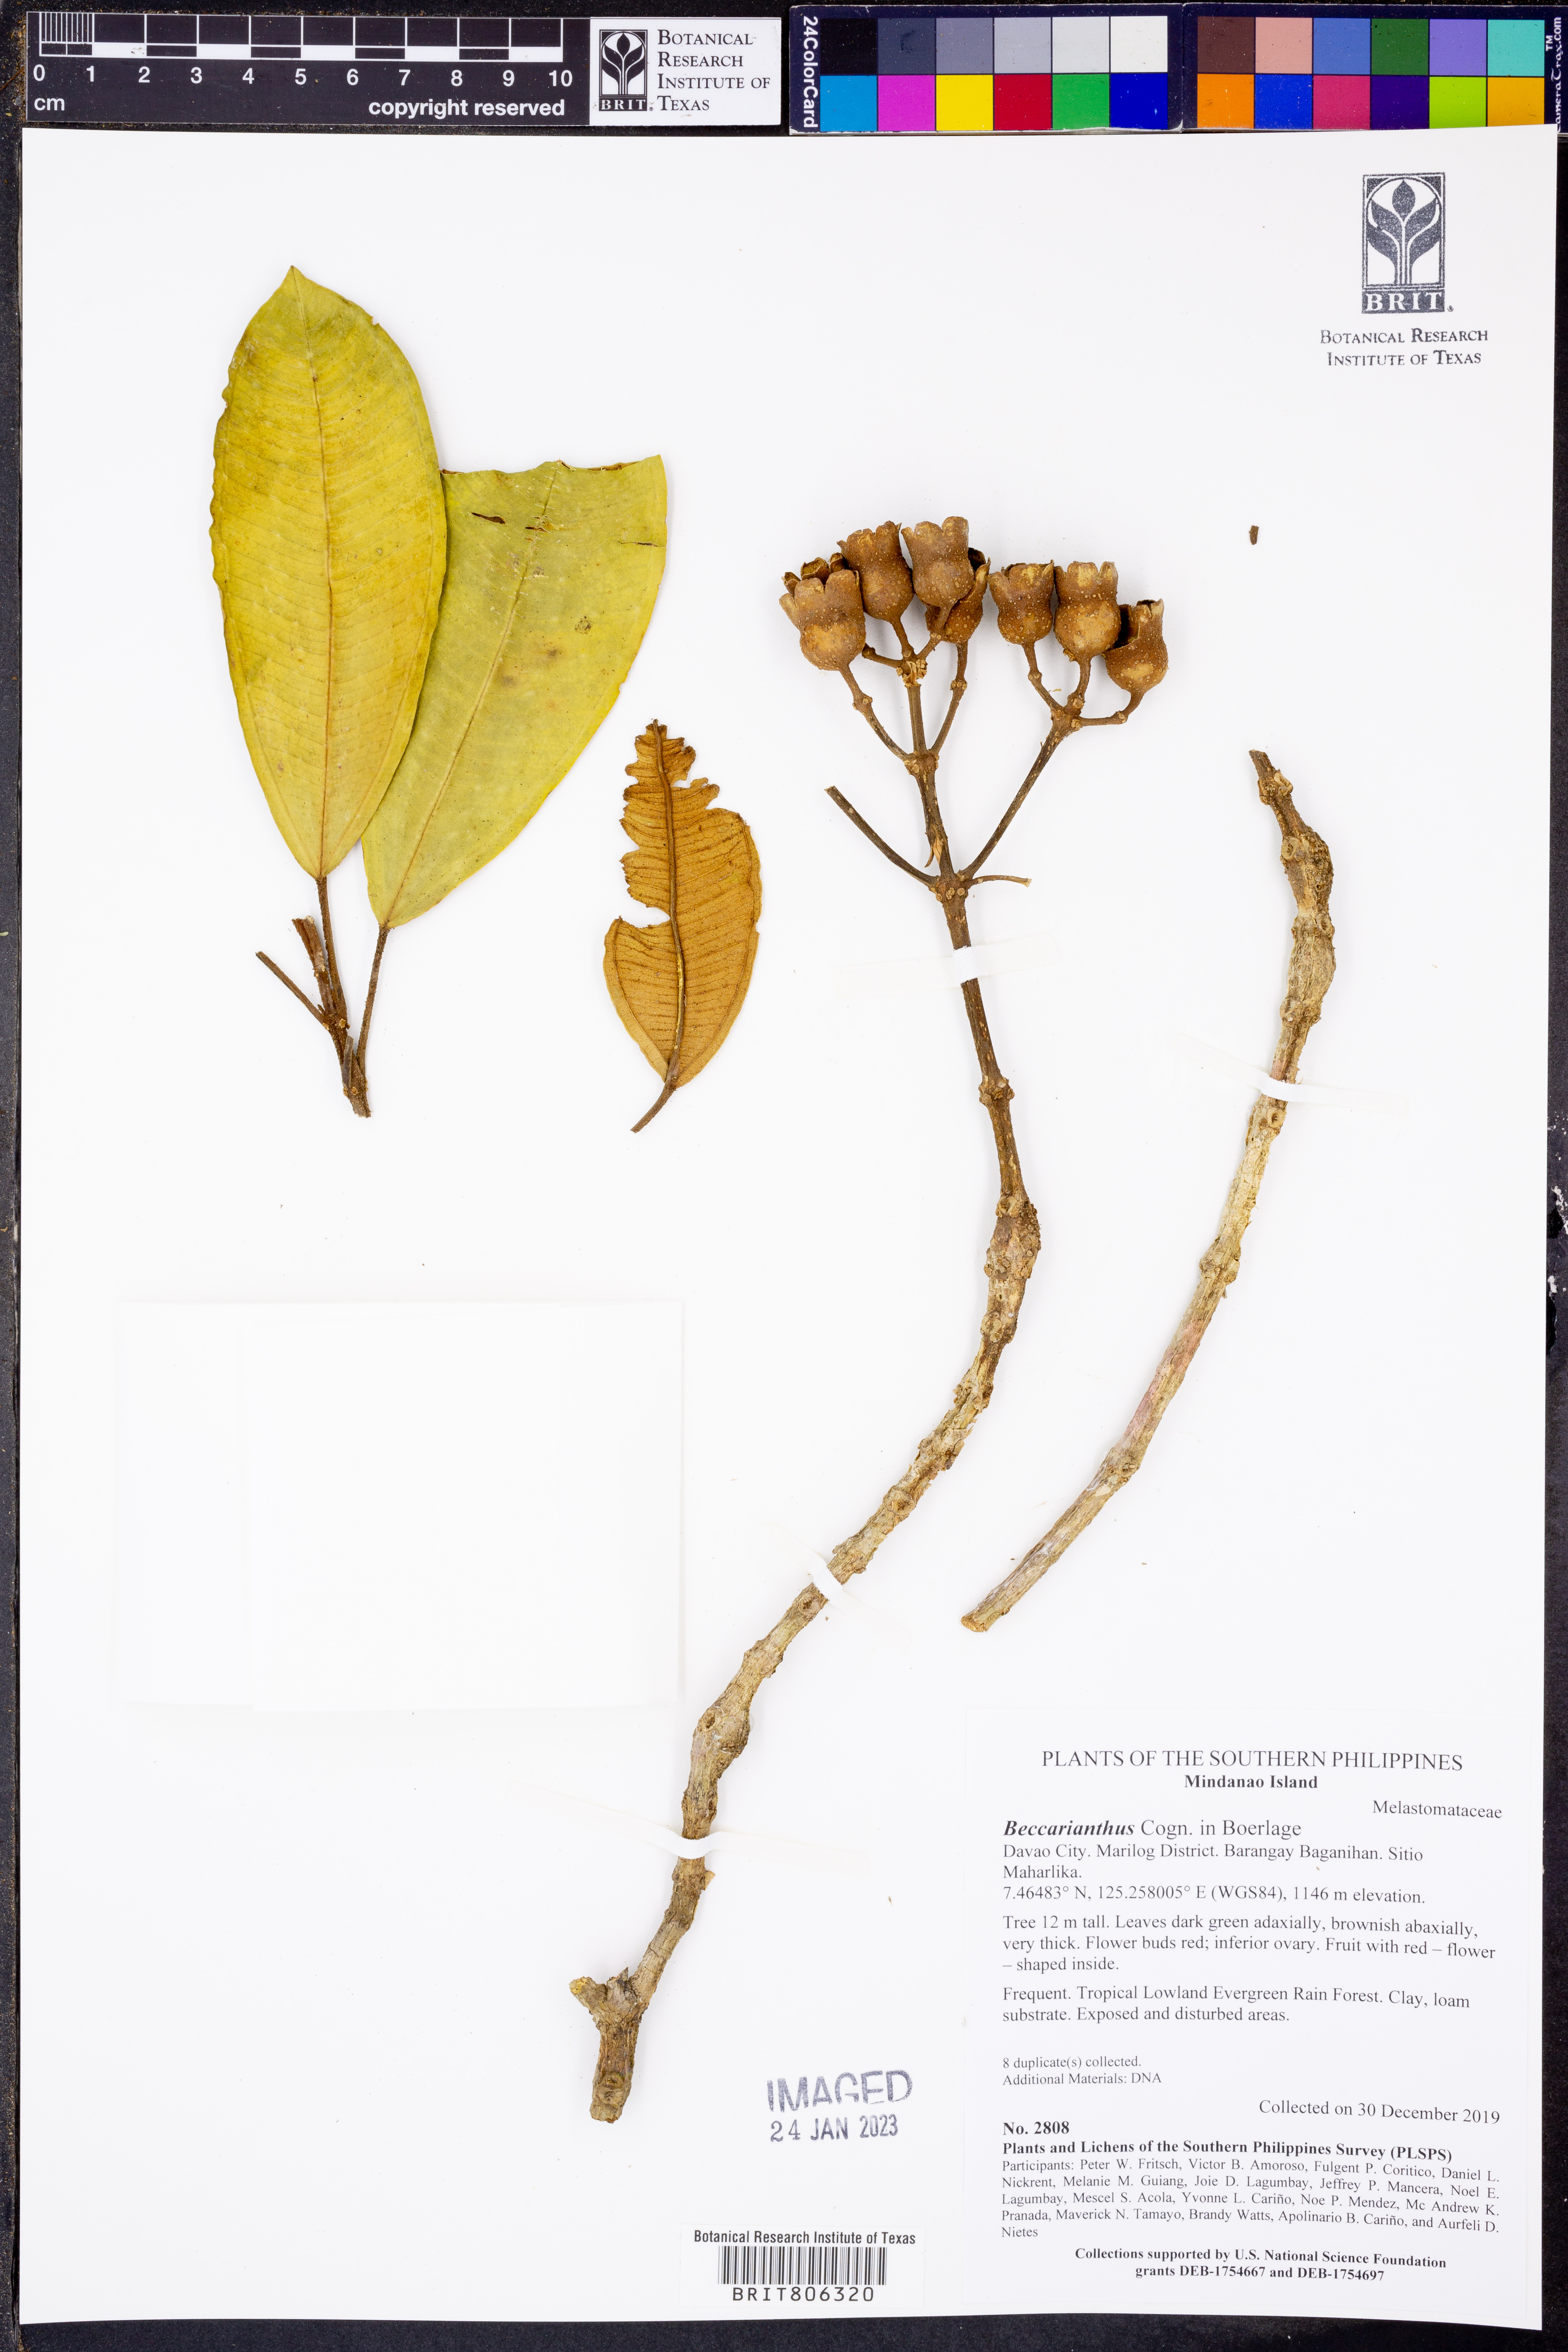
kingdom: Plantae
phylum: Tracheophyta
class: Magnoliopsida
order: Myrtales
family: Melastomataceae
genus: Beccarianthus
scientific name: Beccarianthus
